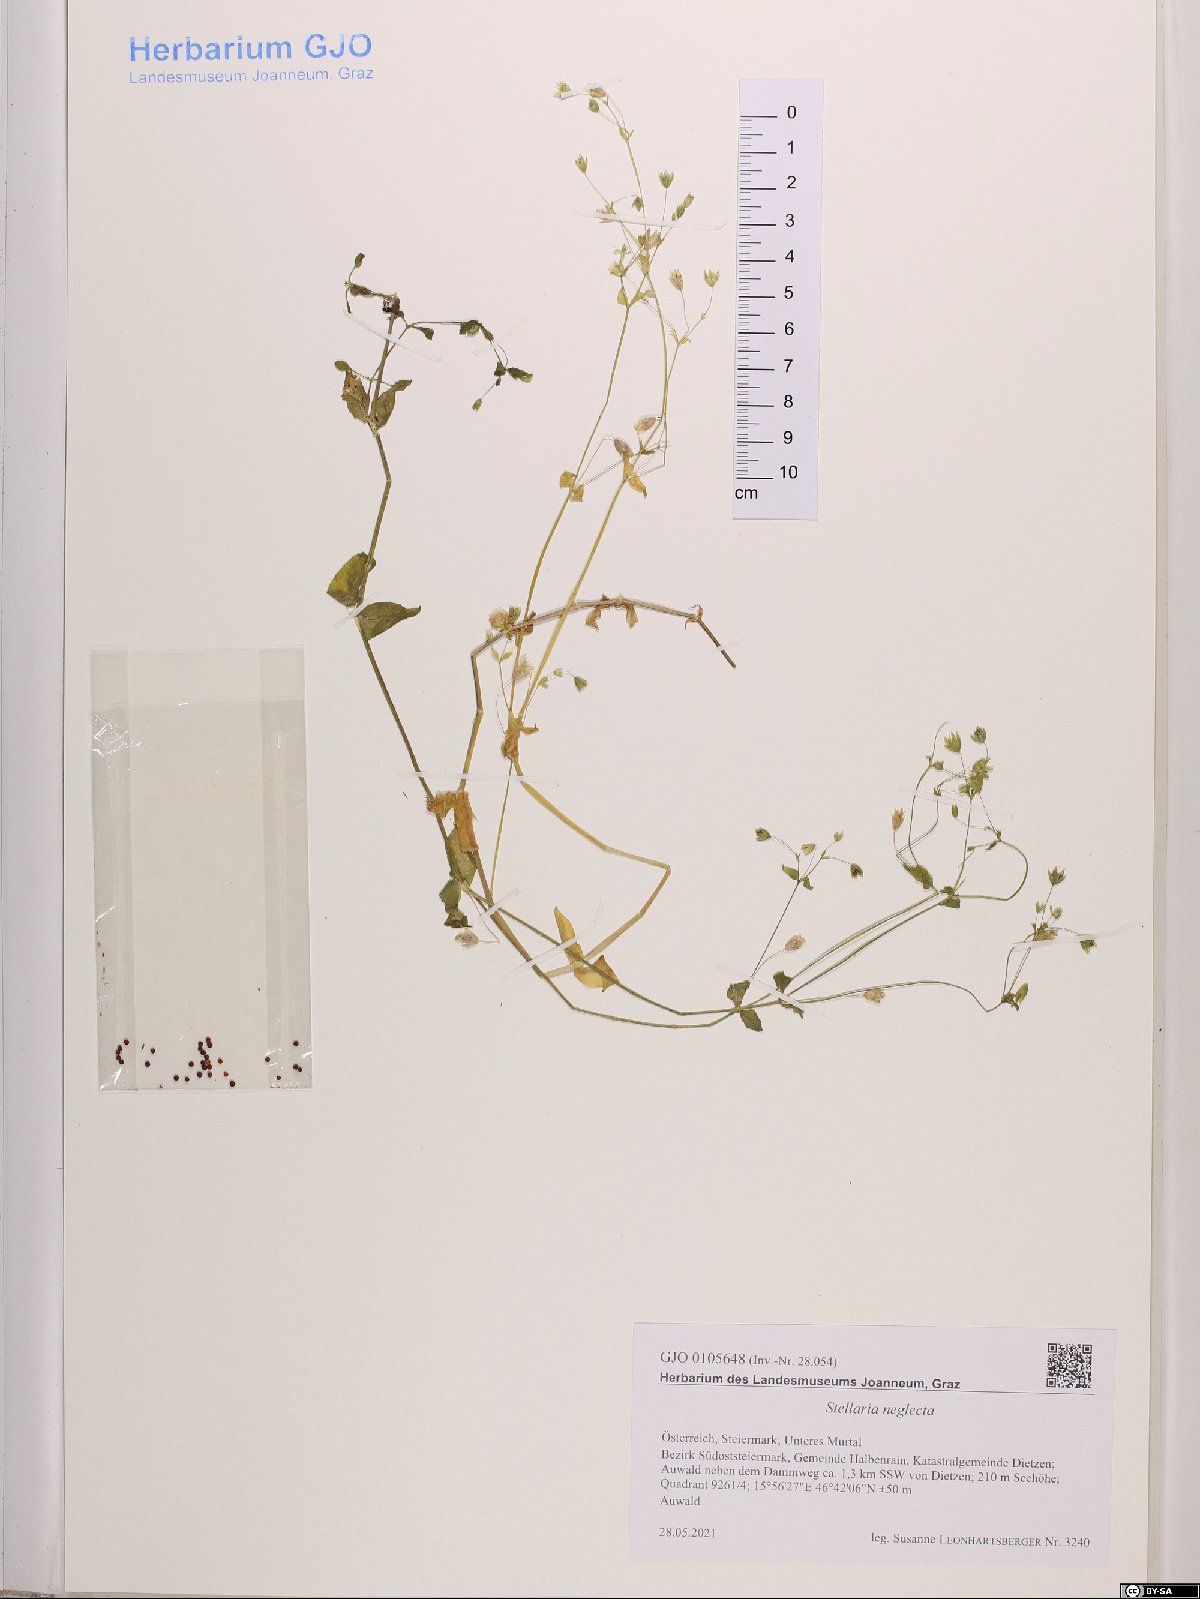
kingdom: Plantae
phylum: Tracheophyta
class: Magnoliopsida
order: Caryophyllales
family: Caryophyllaceae
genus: Stellaria
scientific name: Stellaria neglecta
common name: Greater chickweed
